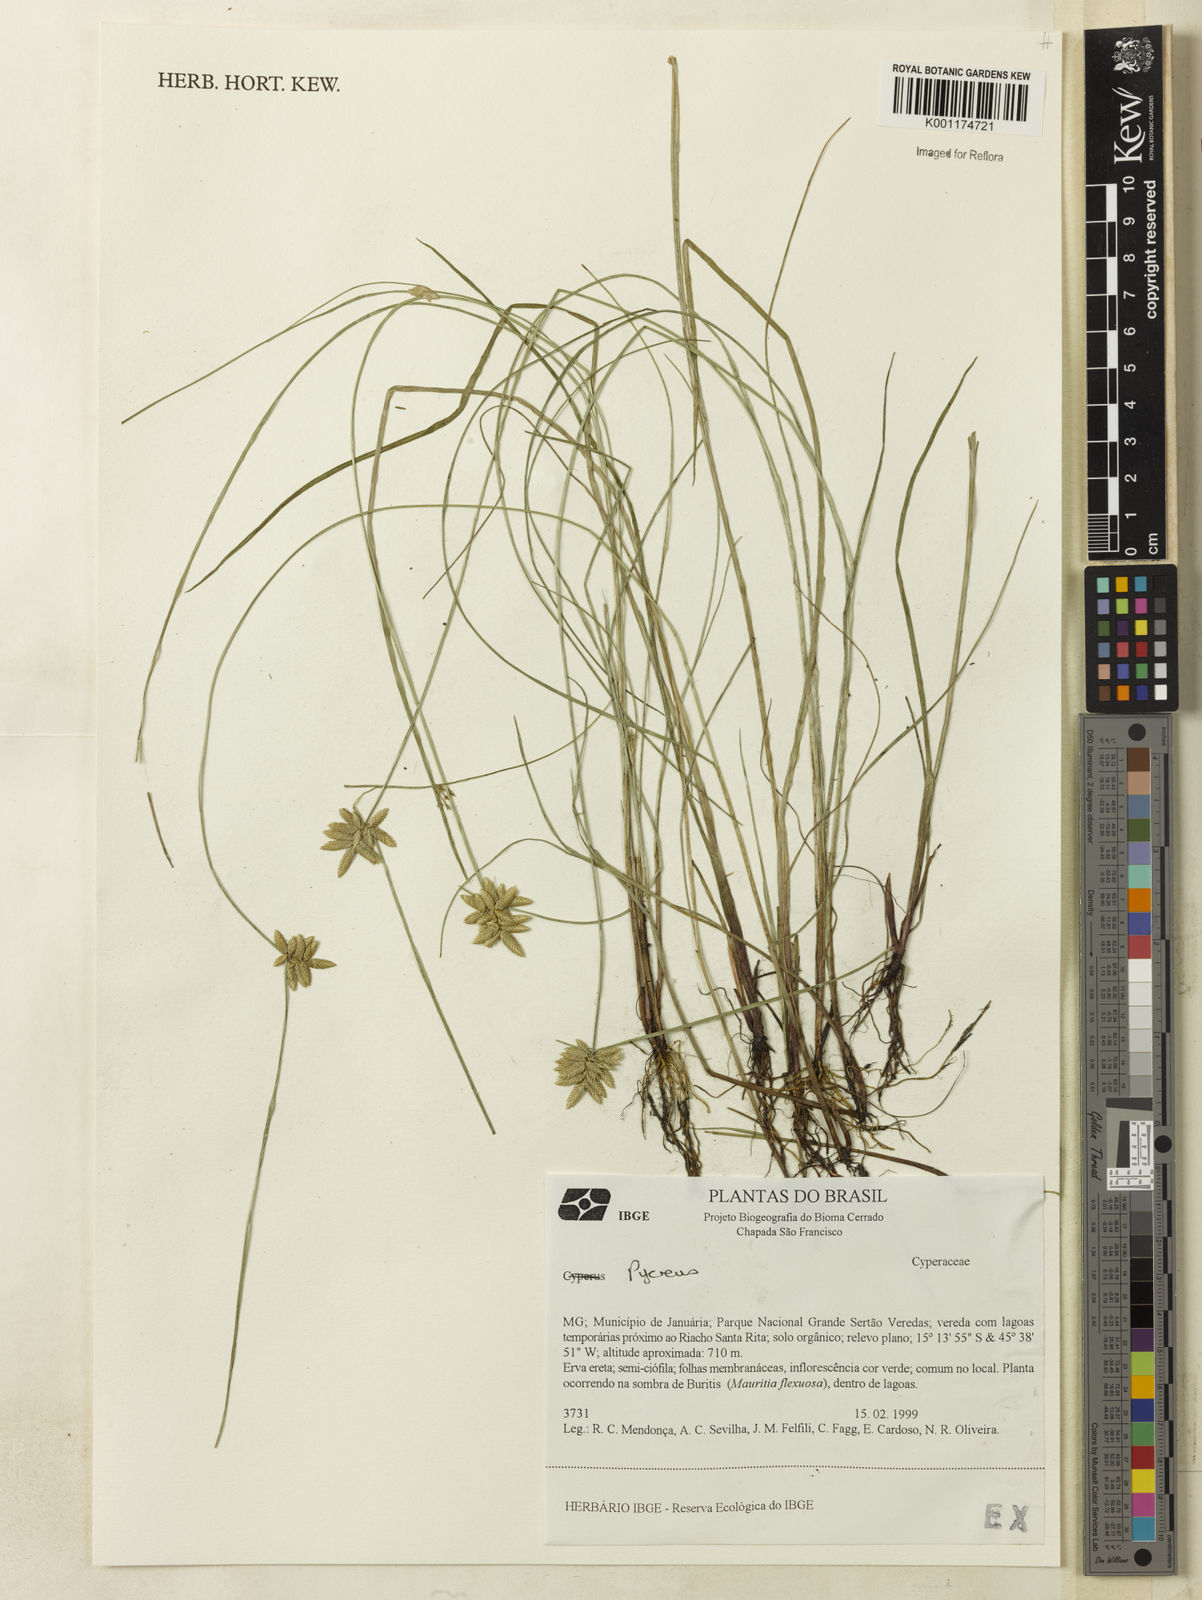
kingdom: Plantae
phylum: Tracheophyta
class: Liliopsida
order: Poales
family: Cyperaceae
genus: Cyperus
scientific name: Cyperus lanceolatus
